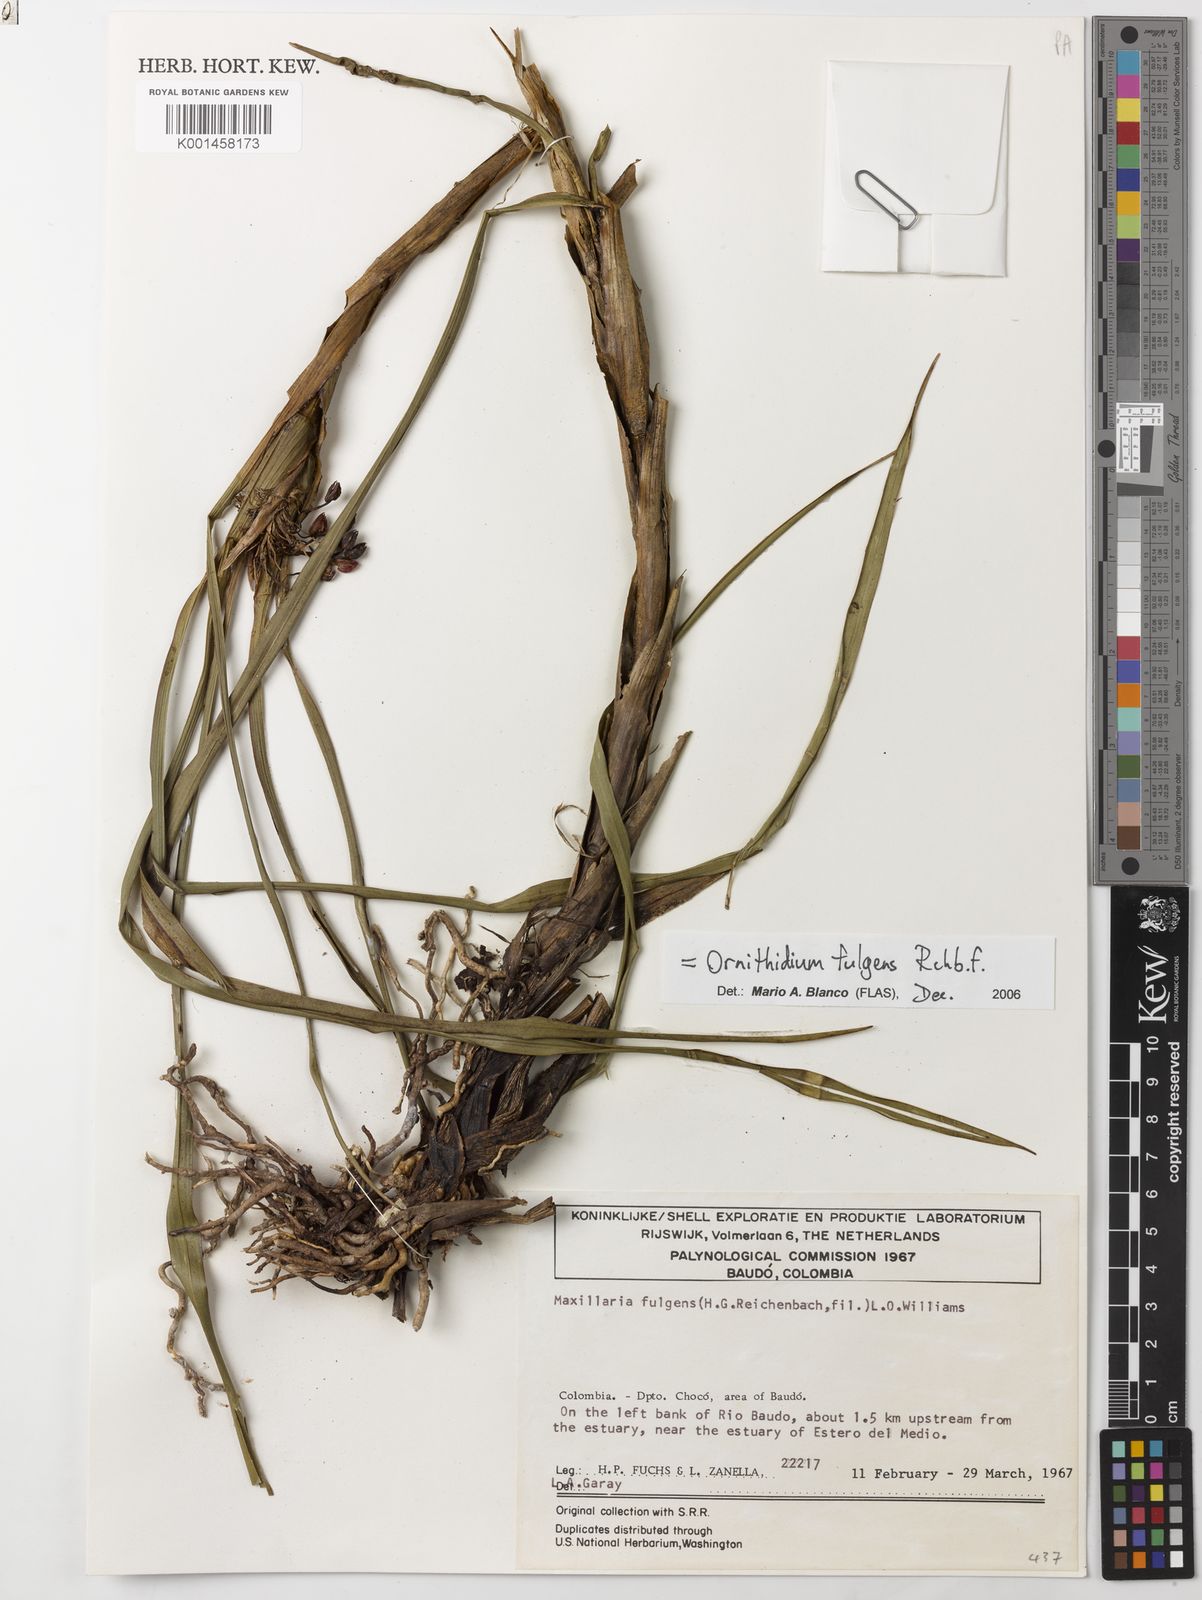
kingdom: Plantae
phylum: Tracheophyta
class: Liliopsida
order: Asparagales
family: Orchidaceae
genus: Maxillaria
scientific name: Maxillaria fulgens
